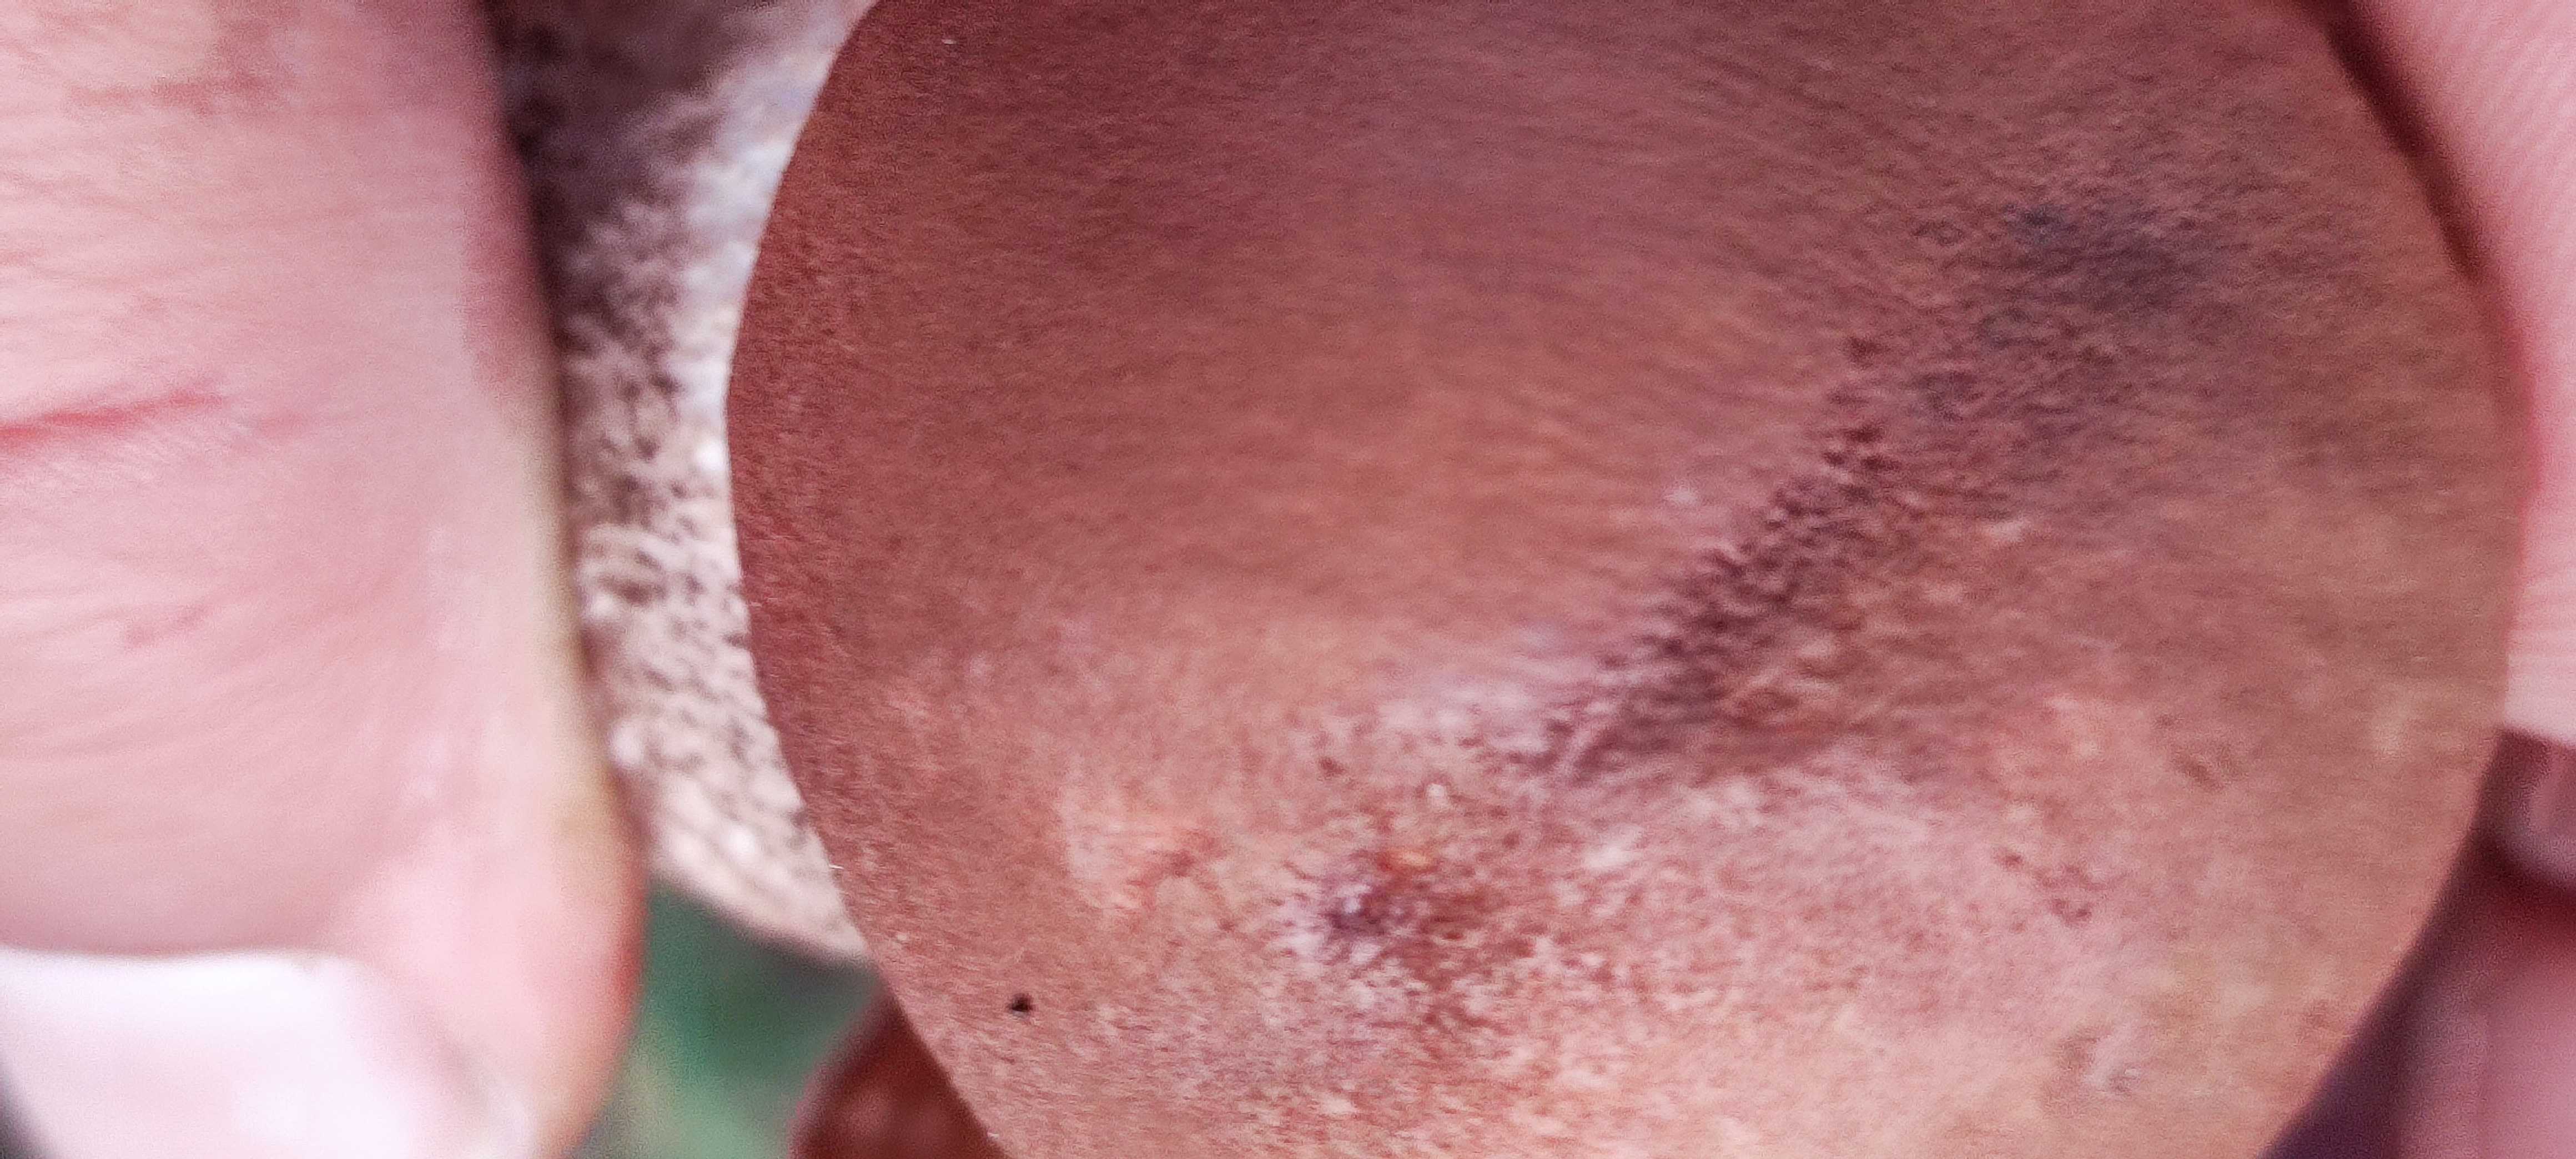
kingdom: Fungi
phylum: Basidiomycota
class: Agaricomycetes
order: Boletales
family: Boletaceae
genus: Leccinum
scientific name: Leccinum aurantiacum
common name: rustrød skælrørhat
